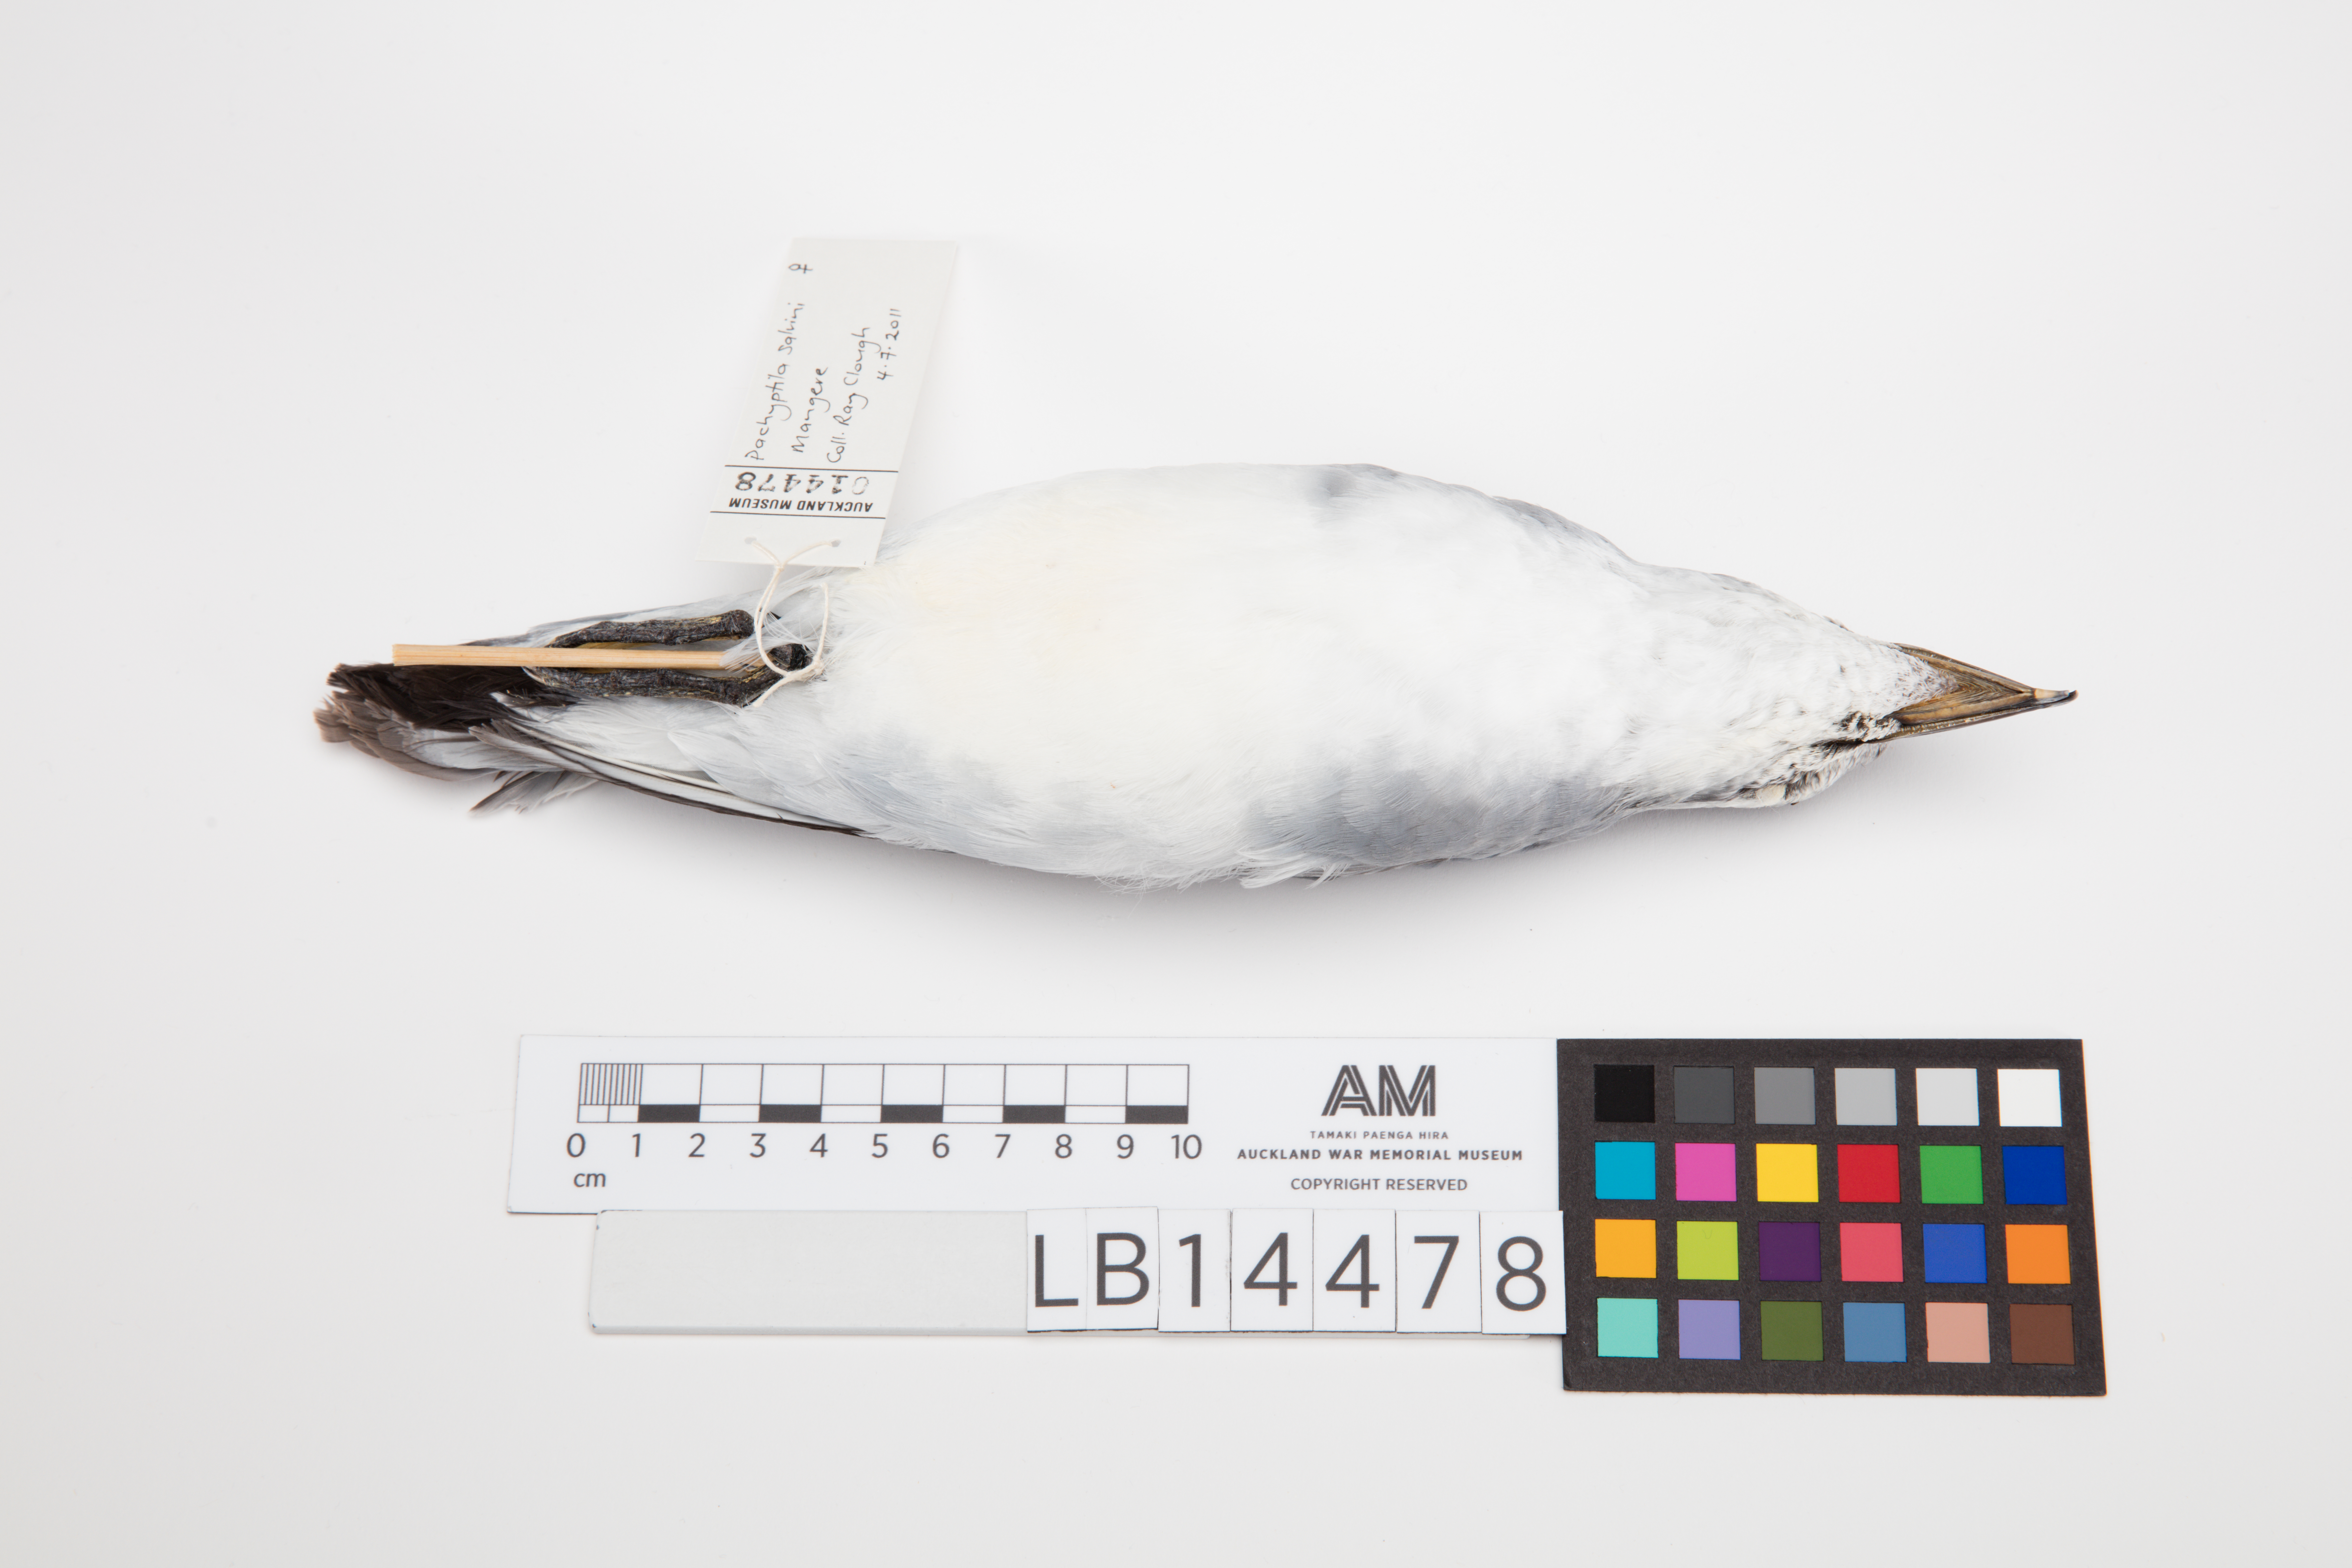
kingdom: Animalia
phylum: Chordata
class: Aves
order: Procellariiformes
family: Procellariidae
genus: Pachyptila
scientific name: Pachyptila salvini
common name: Salvin's prion
